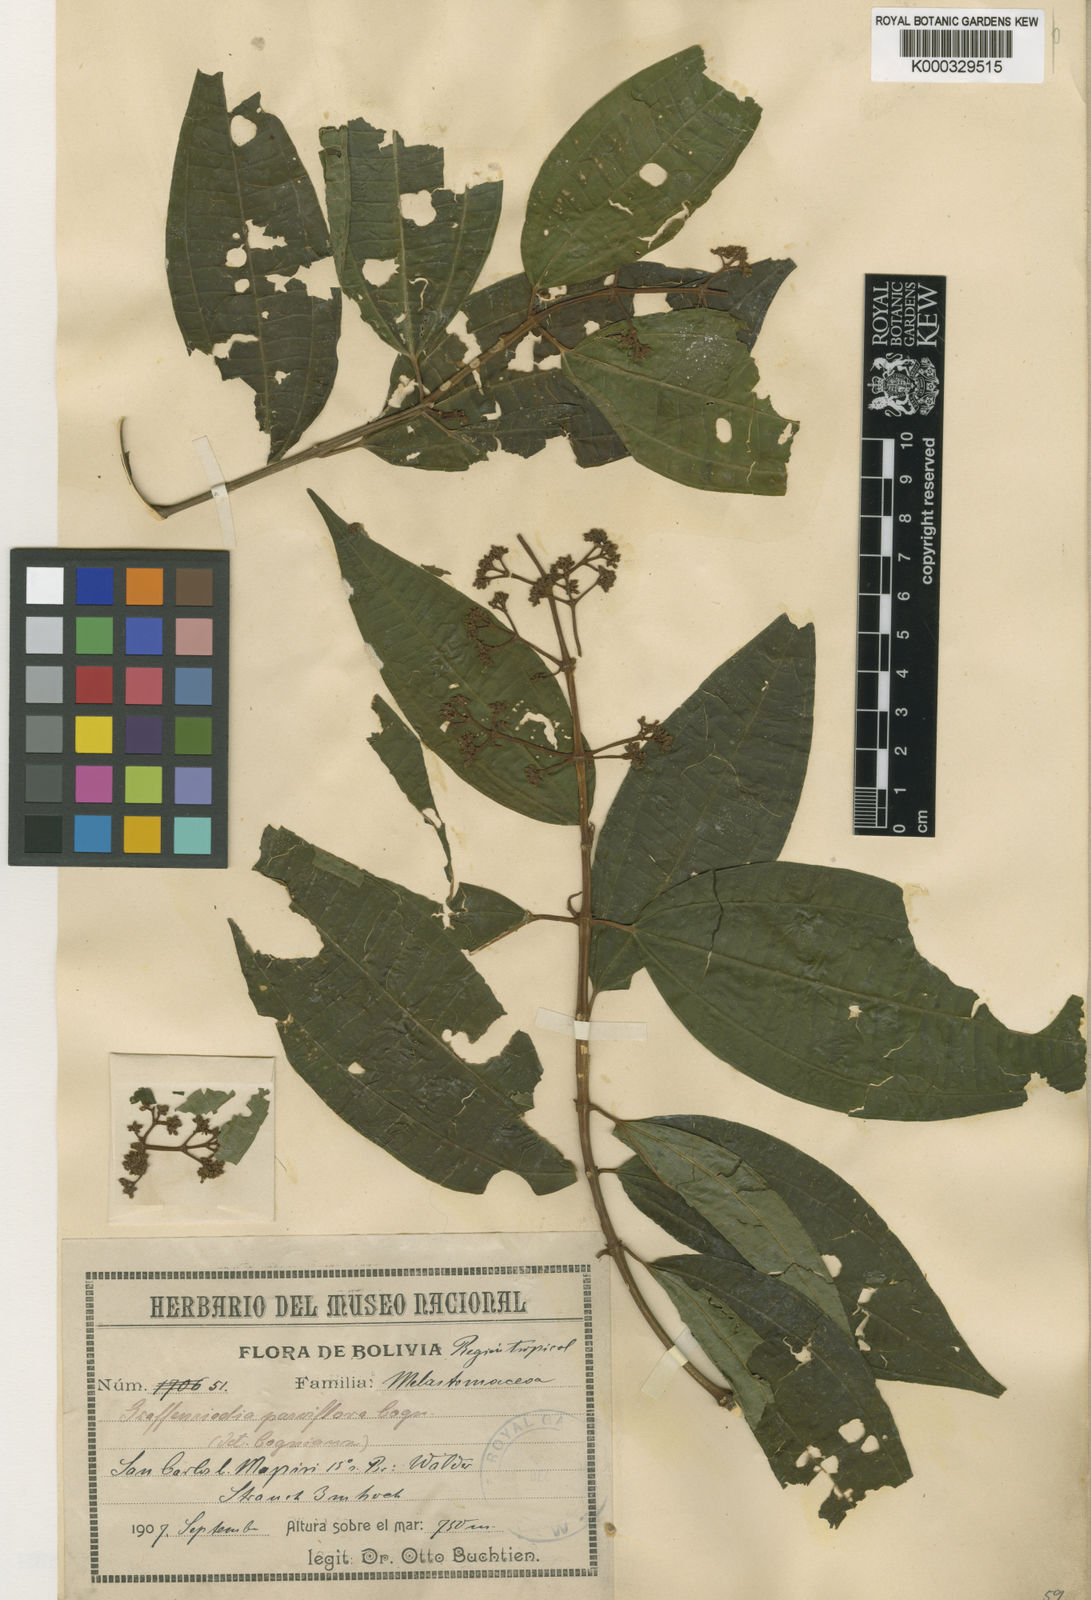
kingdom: Plantae
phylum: Tracheophyta
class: Magnoliopsida
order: Myrtales
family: Melastomataceae
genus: Graffenrieda
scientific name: Graffenrieda gracilis
